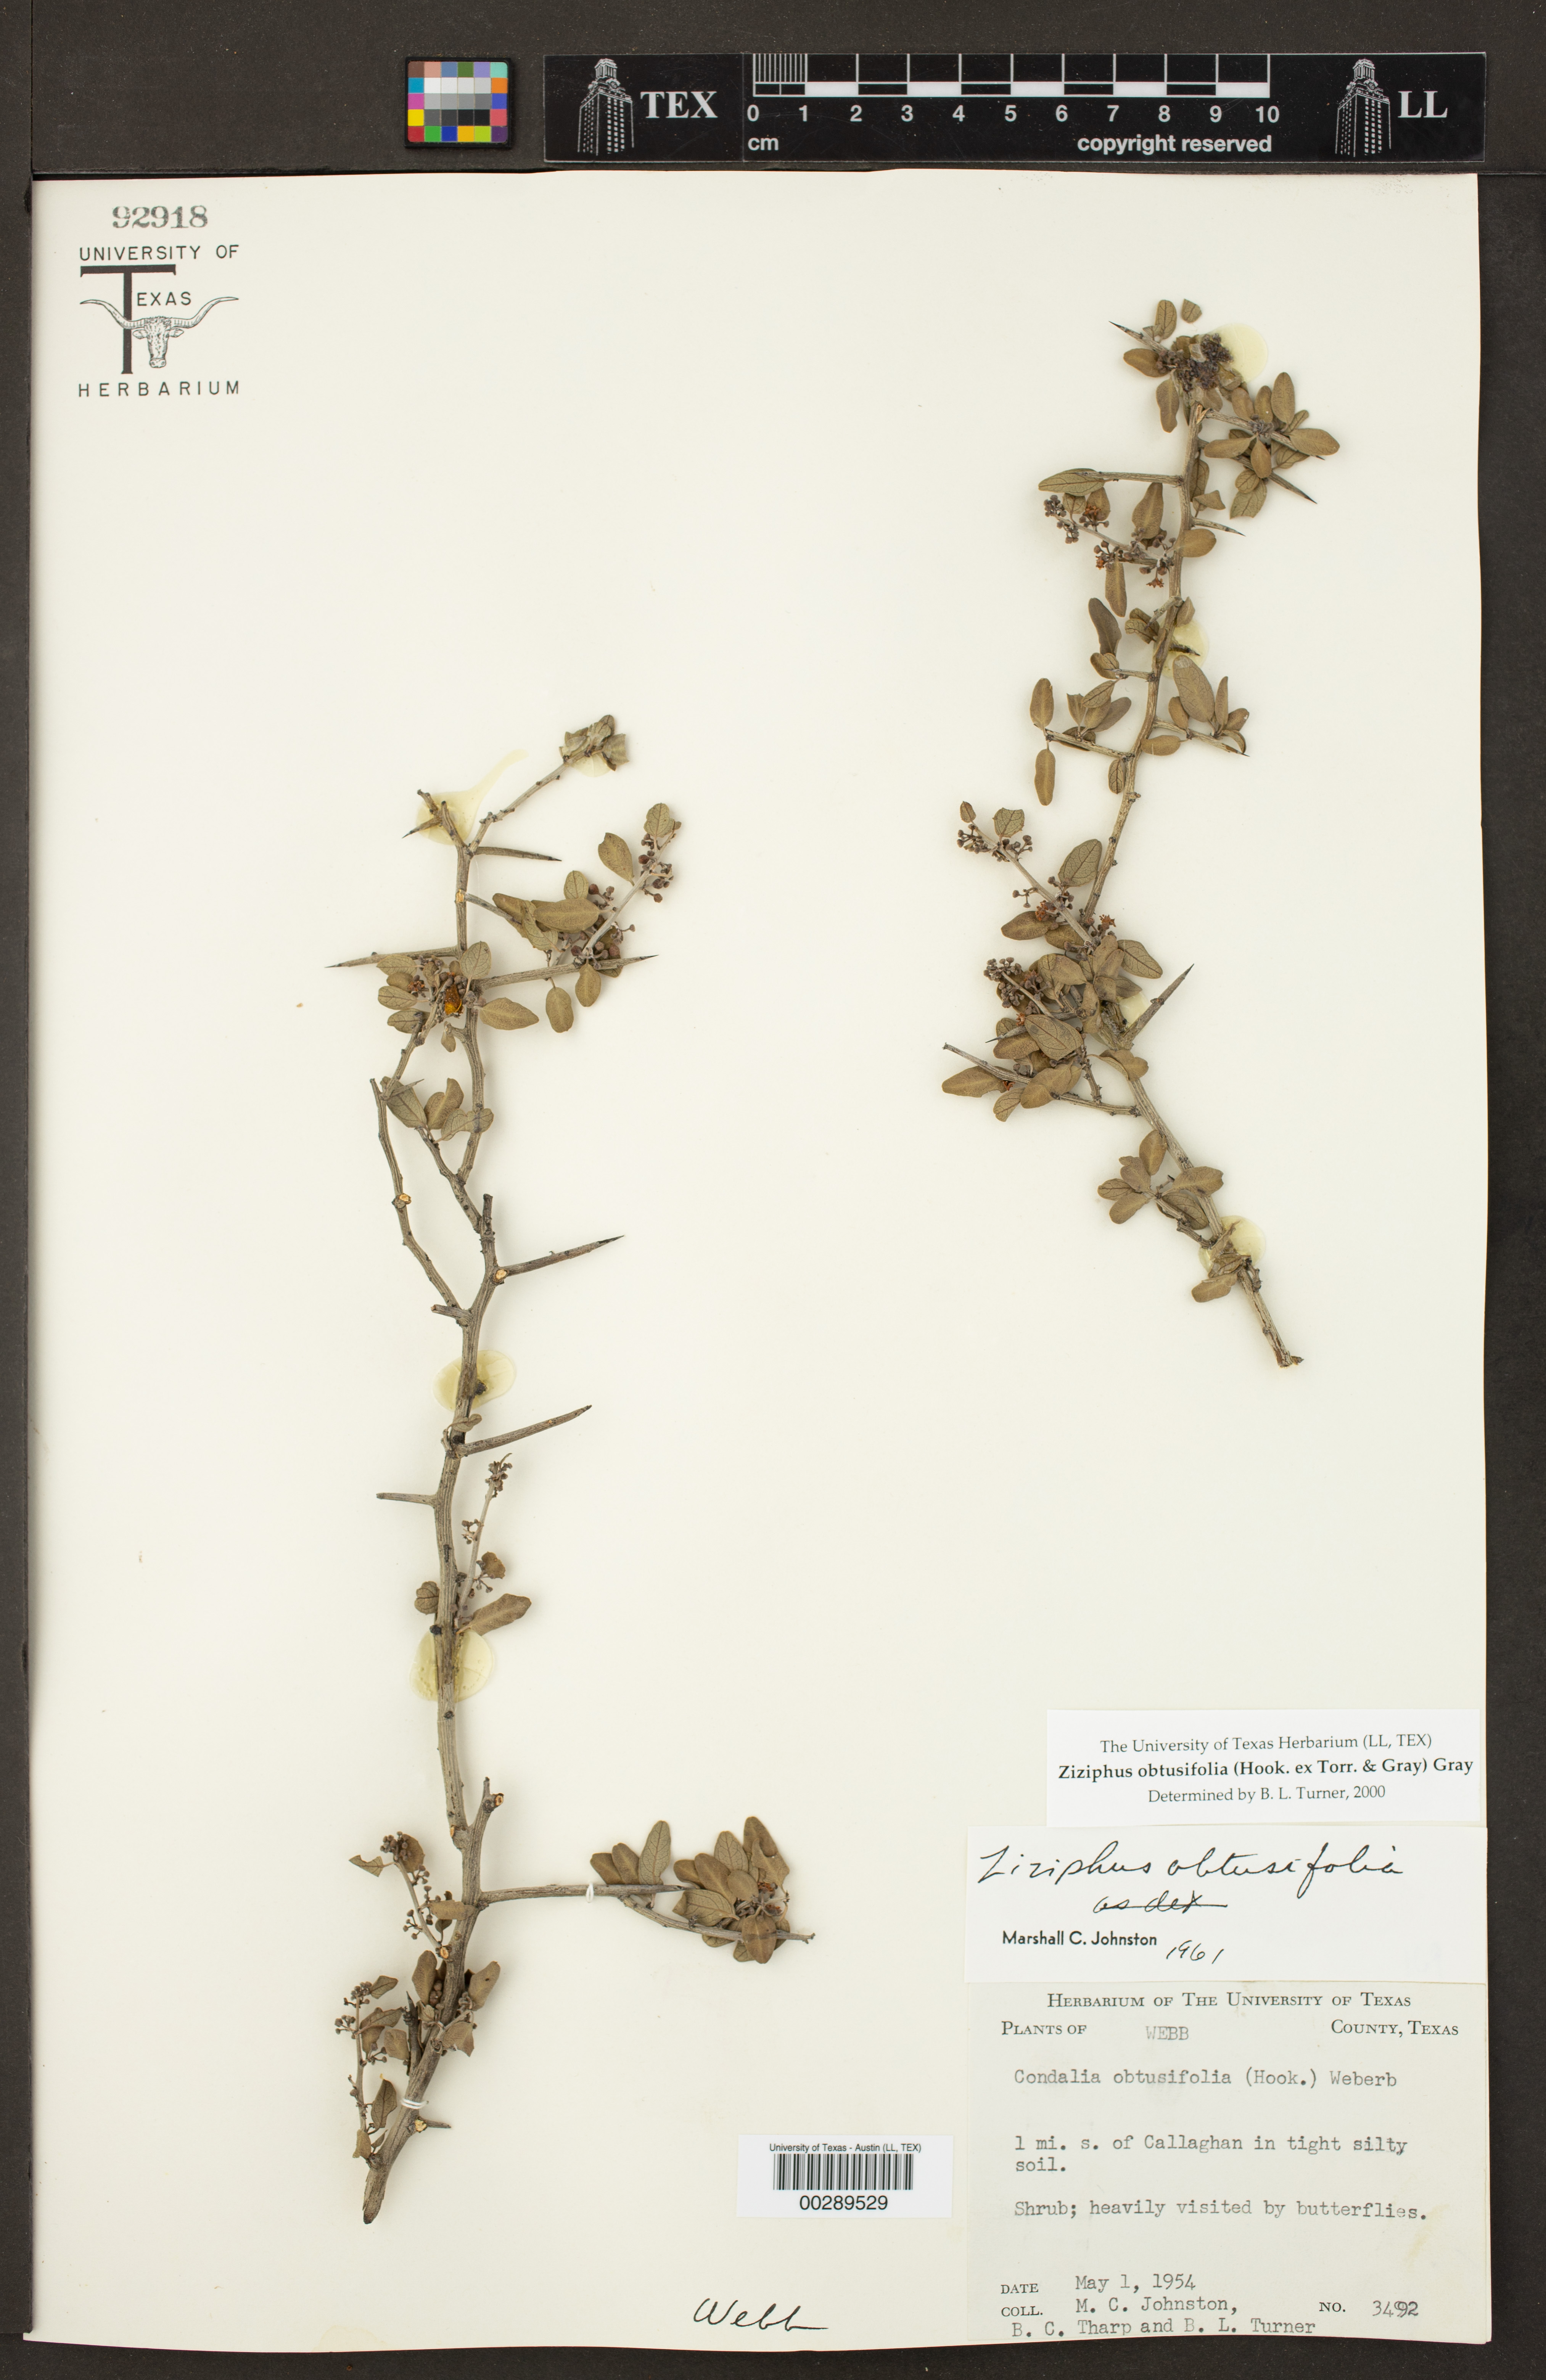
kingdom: Plantae
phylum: Tracheophyta
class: Magnoliopsida
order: Rosales
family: Rhamnaceae
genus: Sarcomphalus
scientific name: Sarcomphalus obtusifolius
